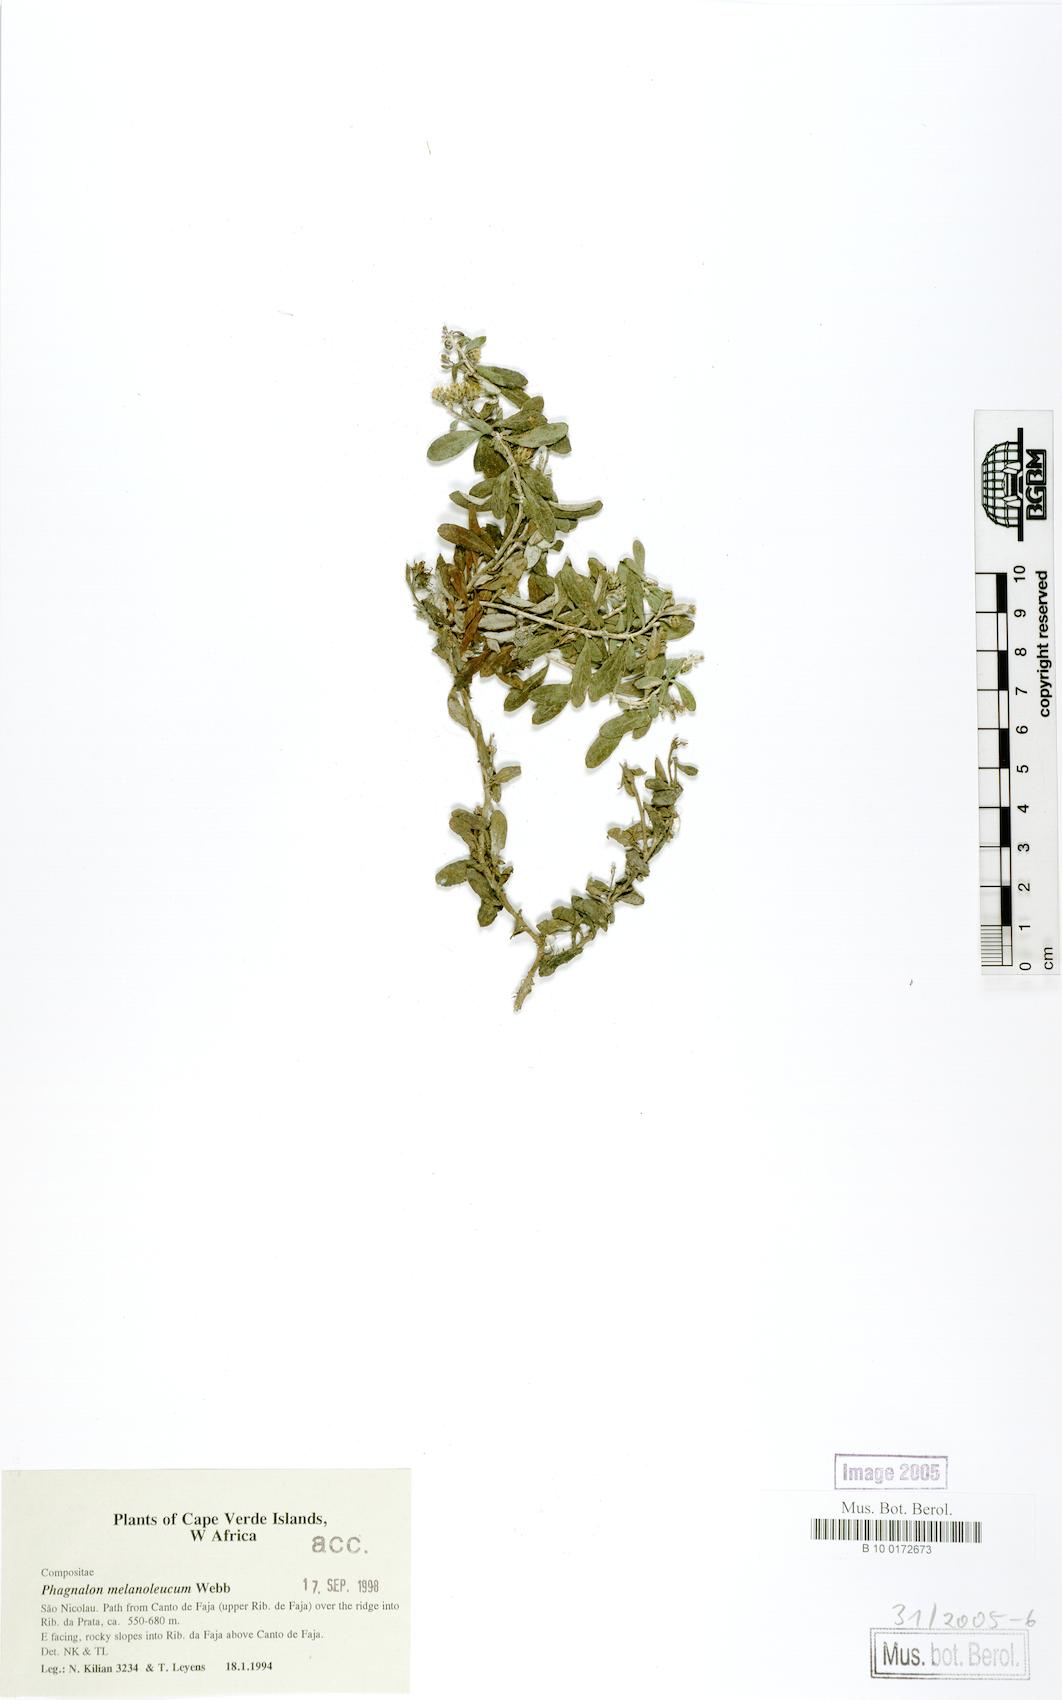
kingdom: Plantae
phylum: Tracheophyta
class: Magnoliopsida
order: Asterales
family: Asteraceae
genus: Phagnalon
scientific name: Phagnalon melanoleucum
